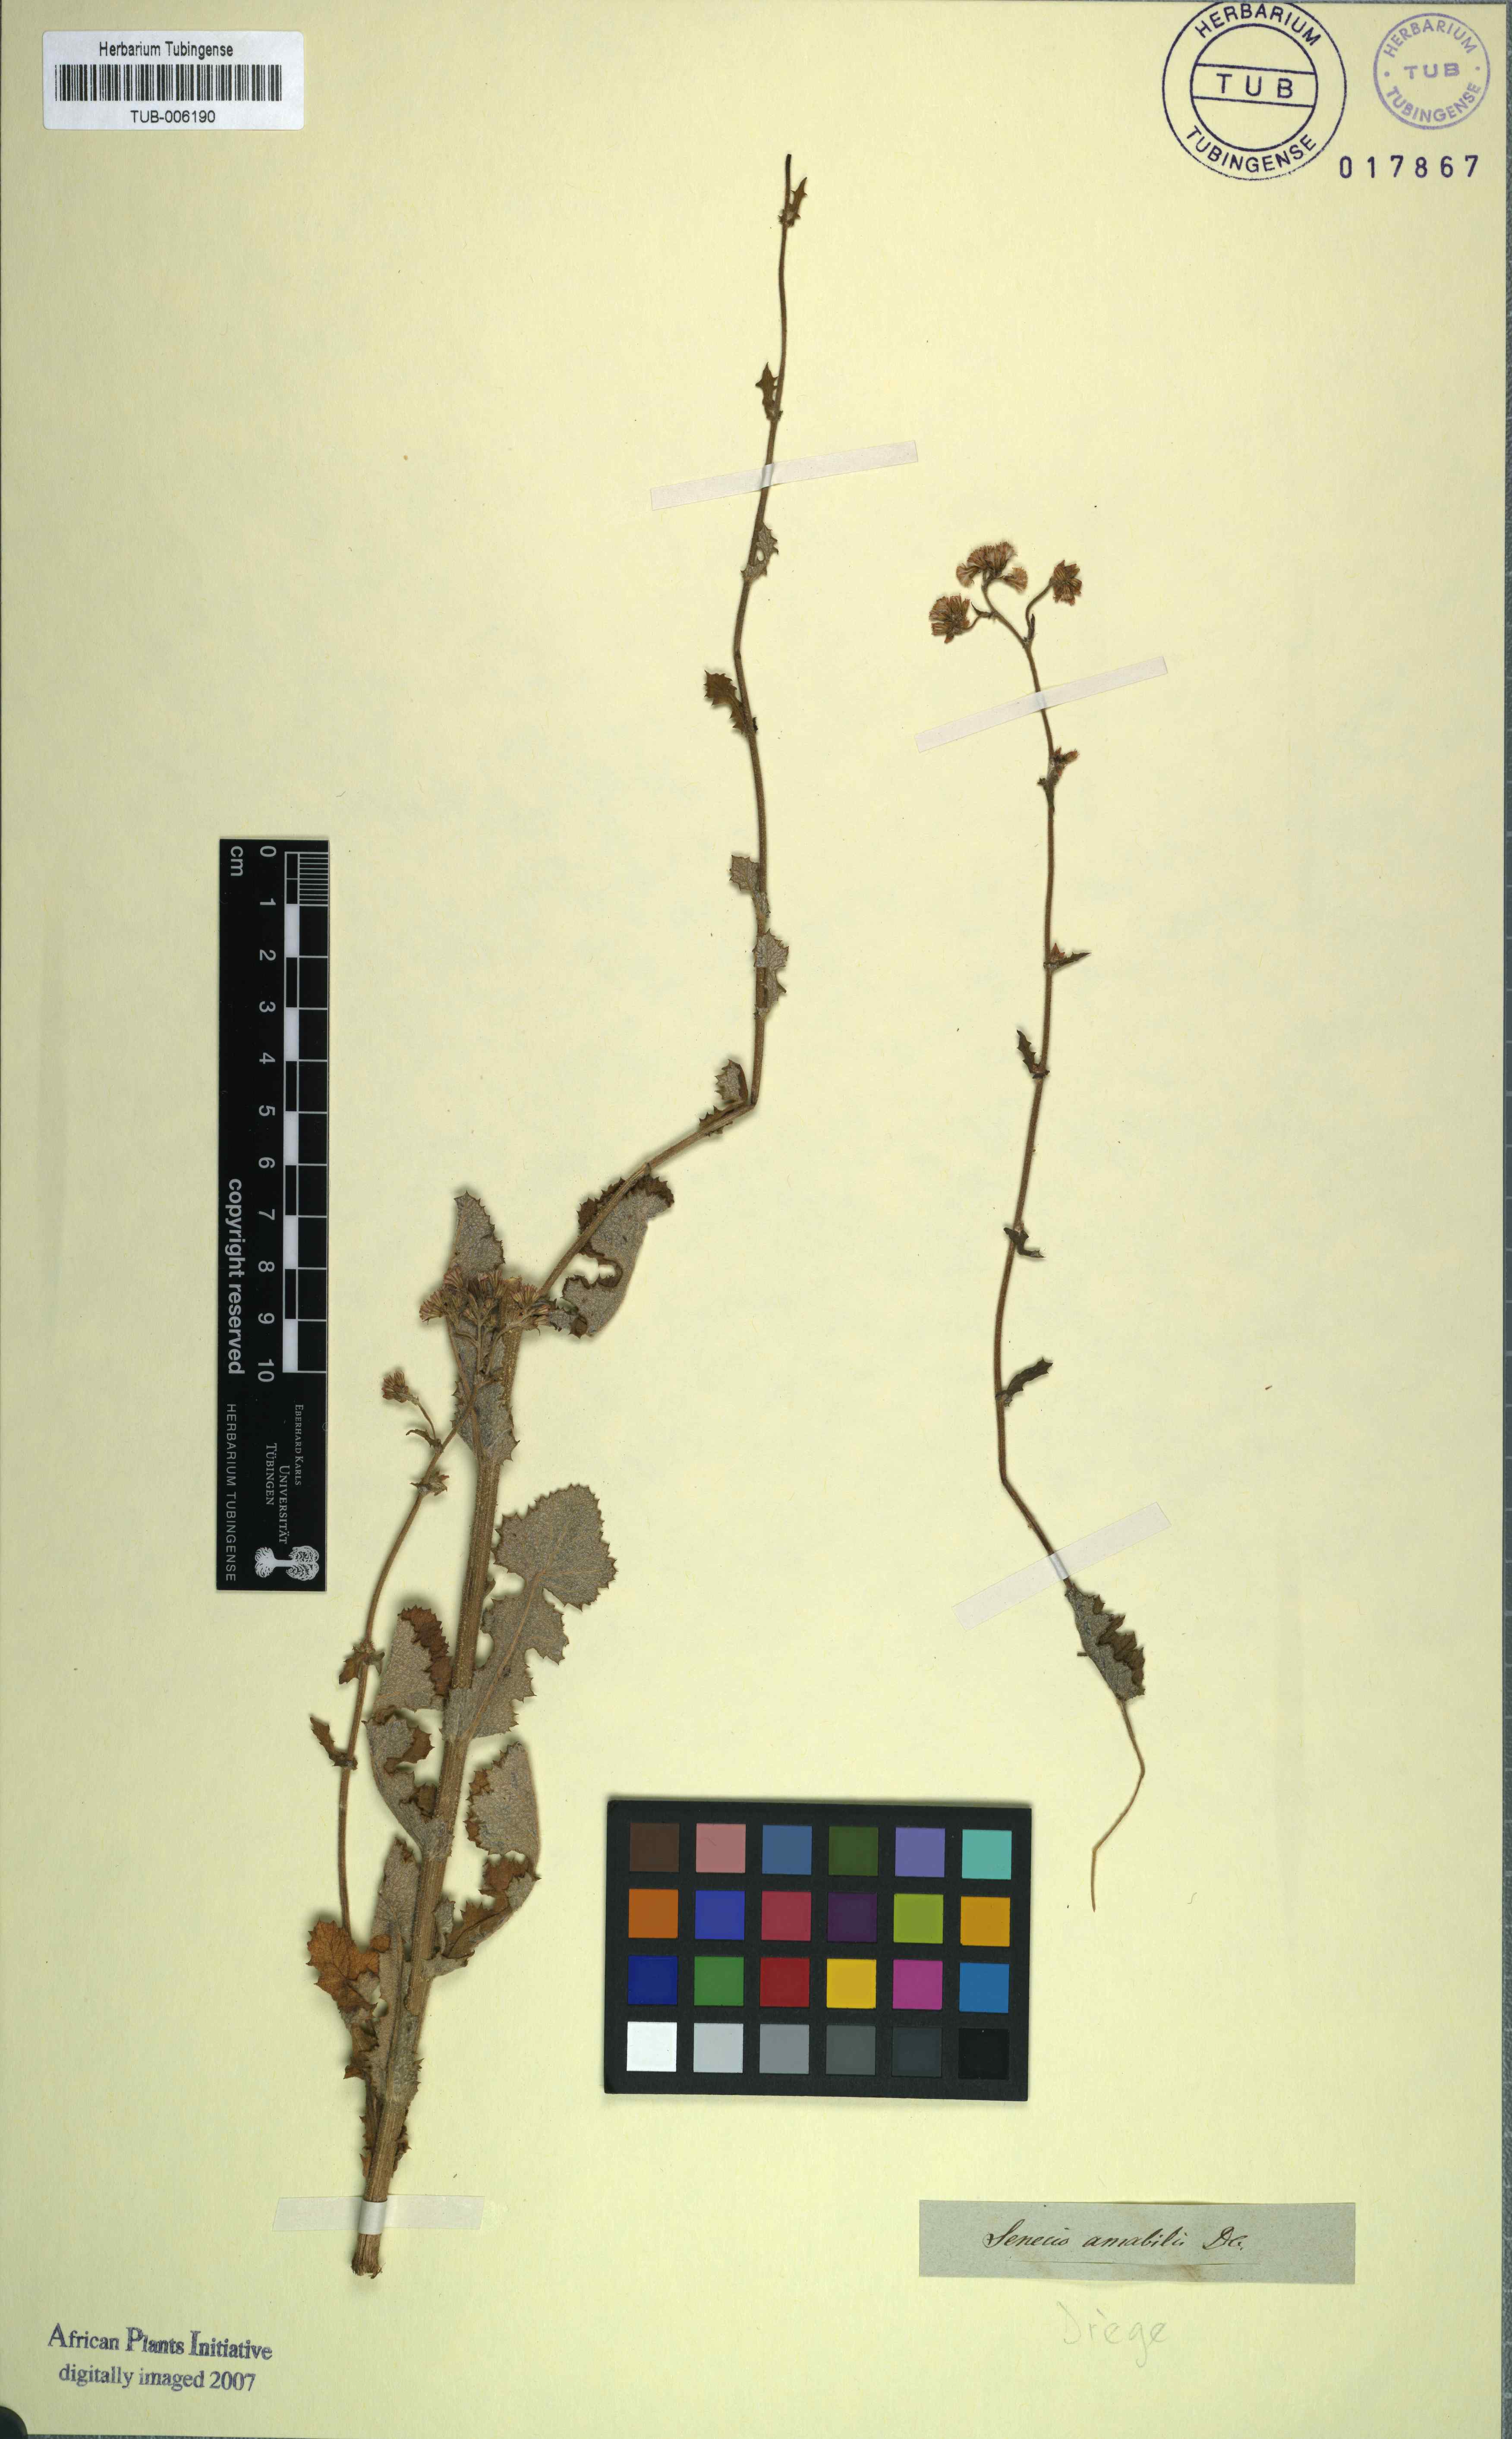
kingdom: Plantae
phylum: Tracheophyta
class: Magnoliopsida
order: Asterales
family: Asteraceae
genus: Senecio
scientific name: Senecio anapetes
